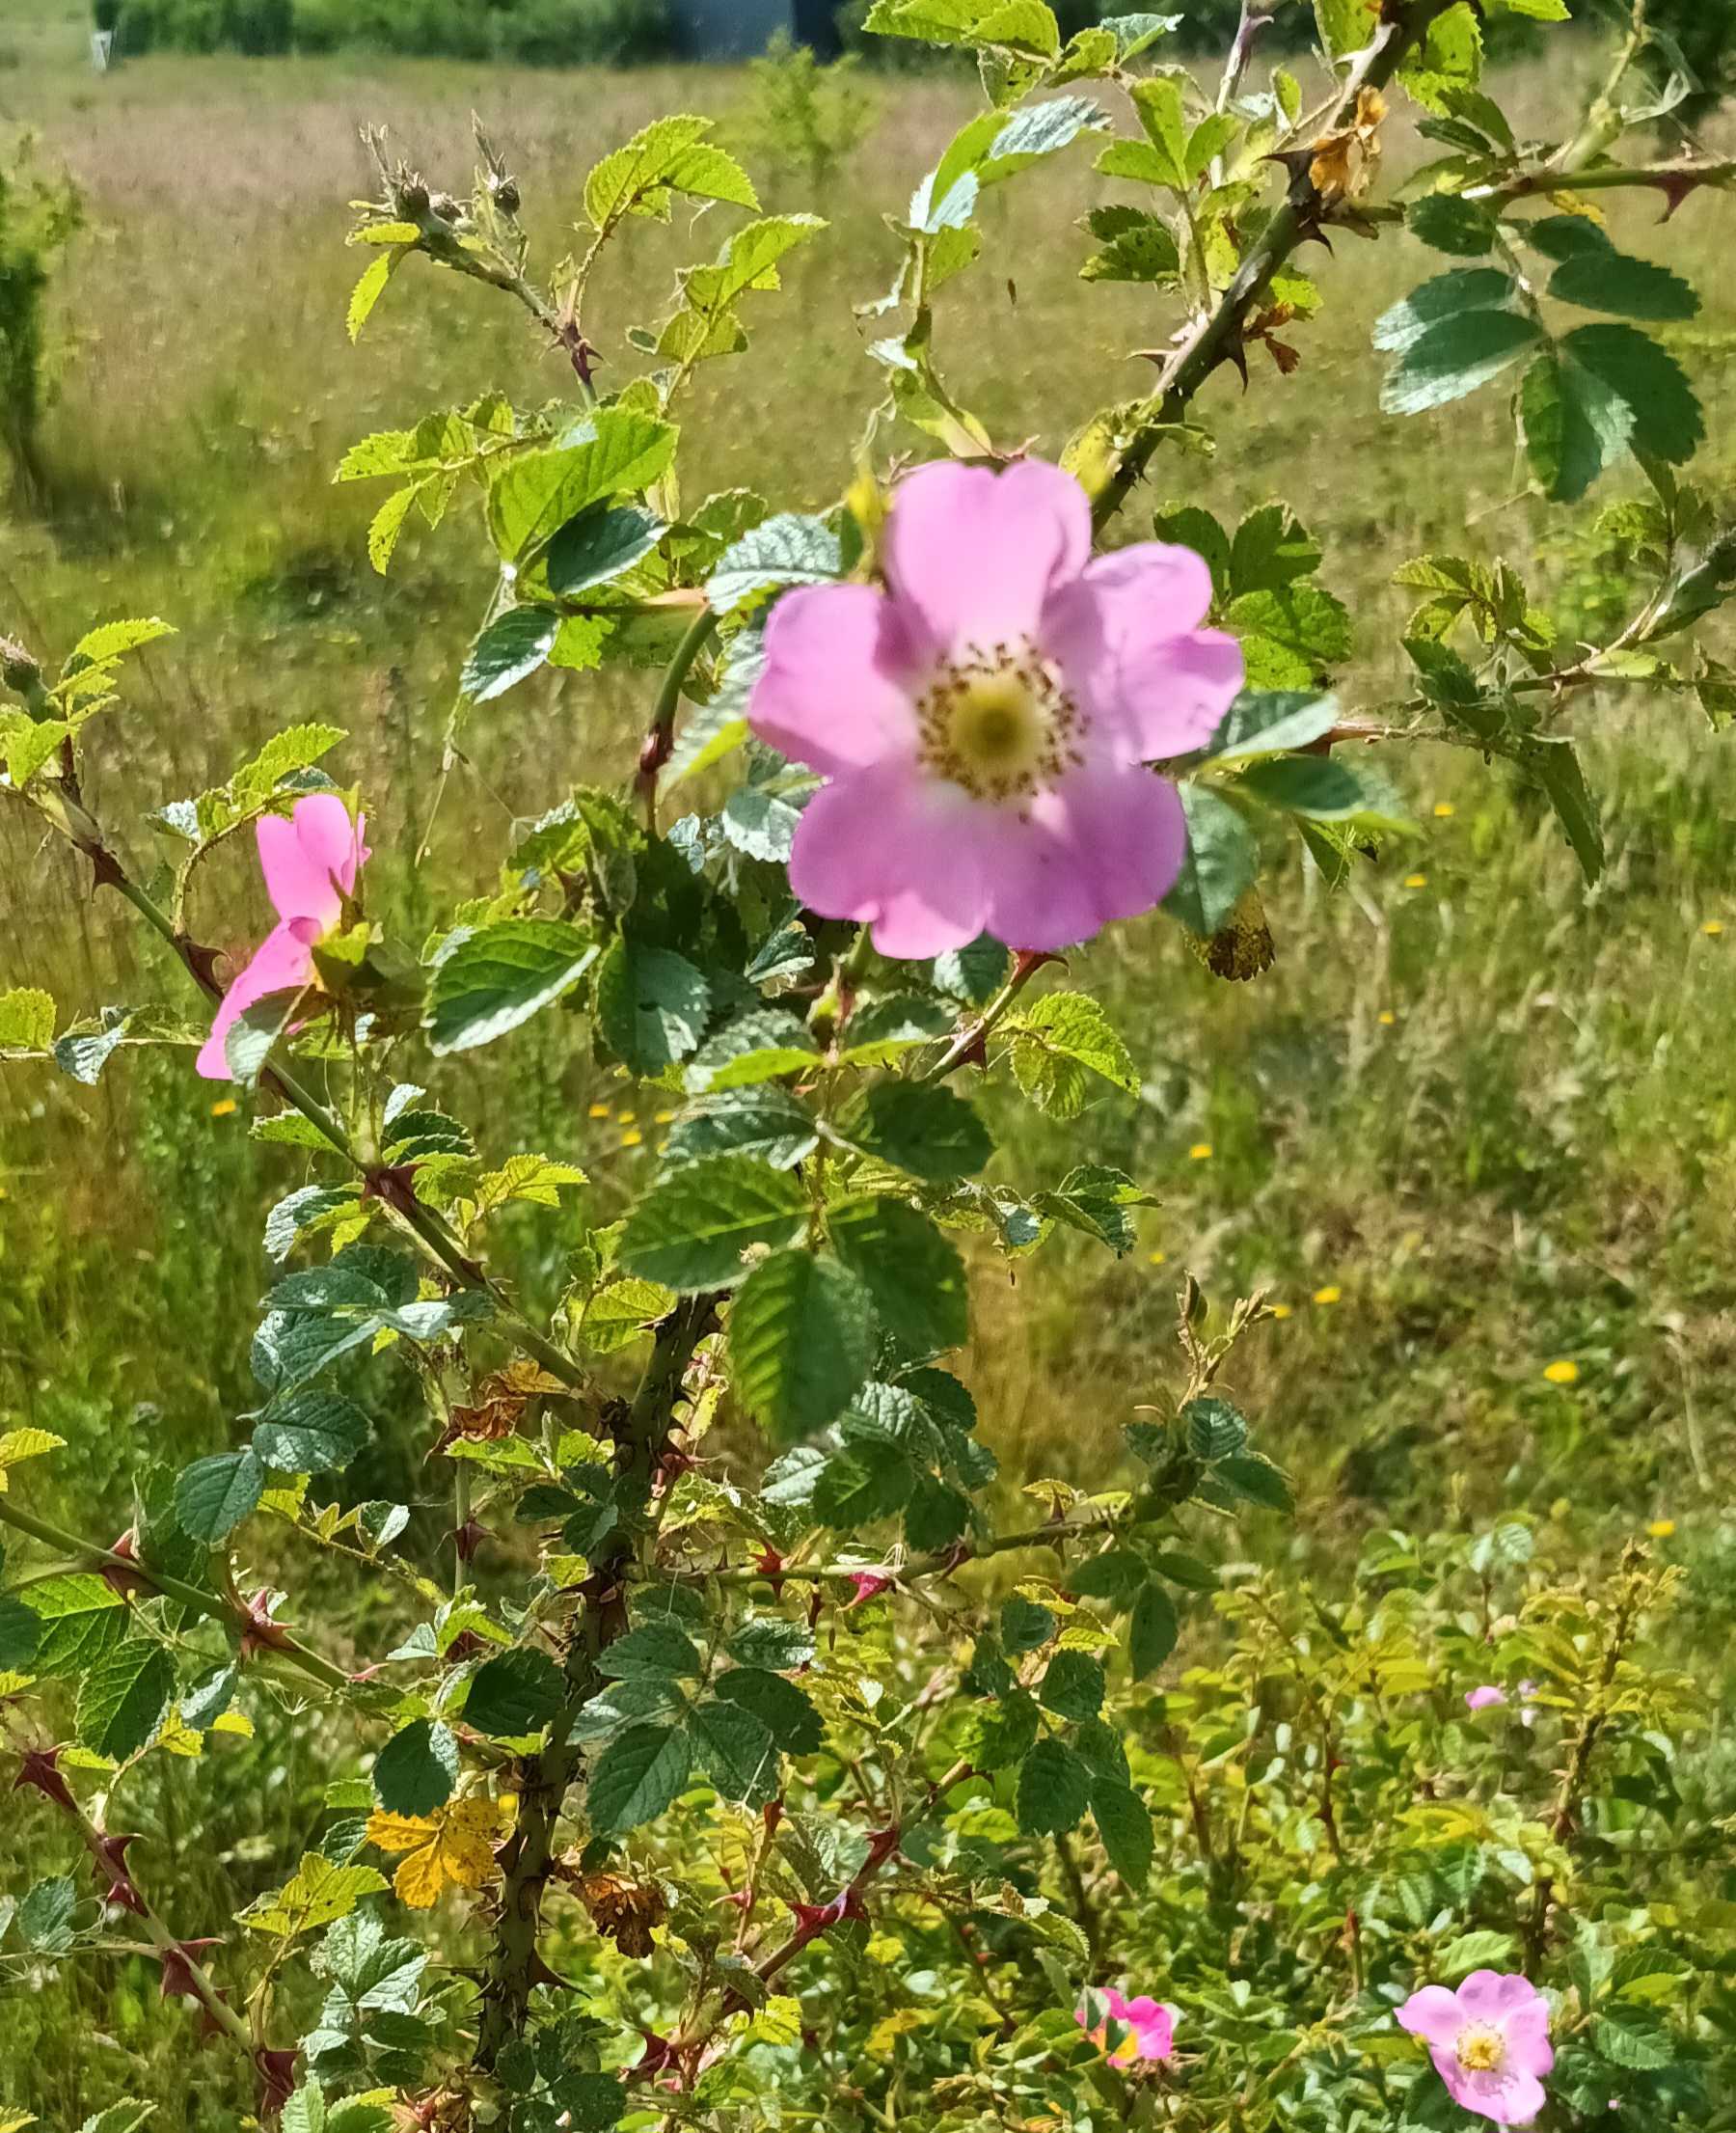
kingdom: Plantae
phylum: Tracheophyta
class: Magnoliopsida
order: Rosales
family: Rosaceae
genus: Rosa
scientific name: Rosa rubiginosa
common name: Æble-rose
